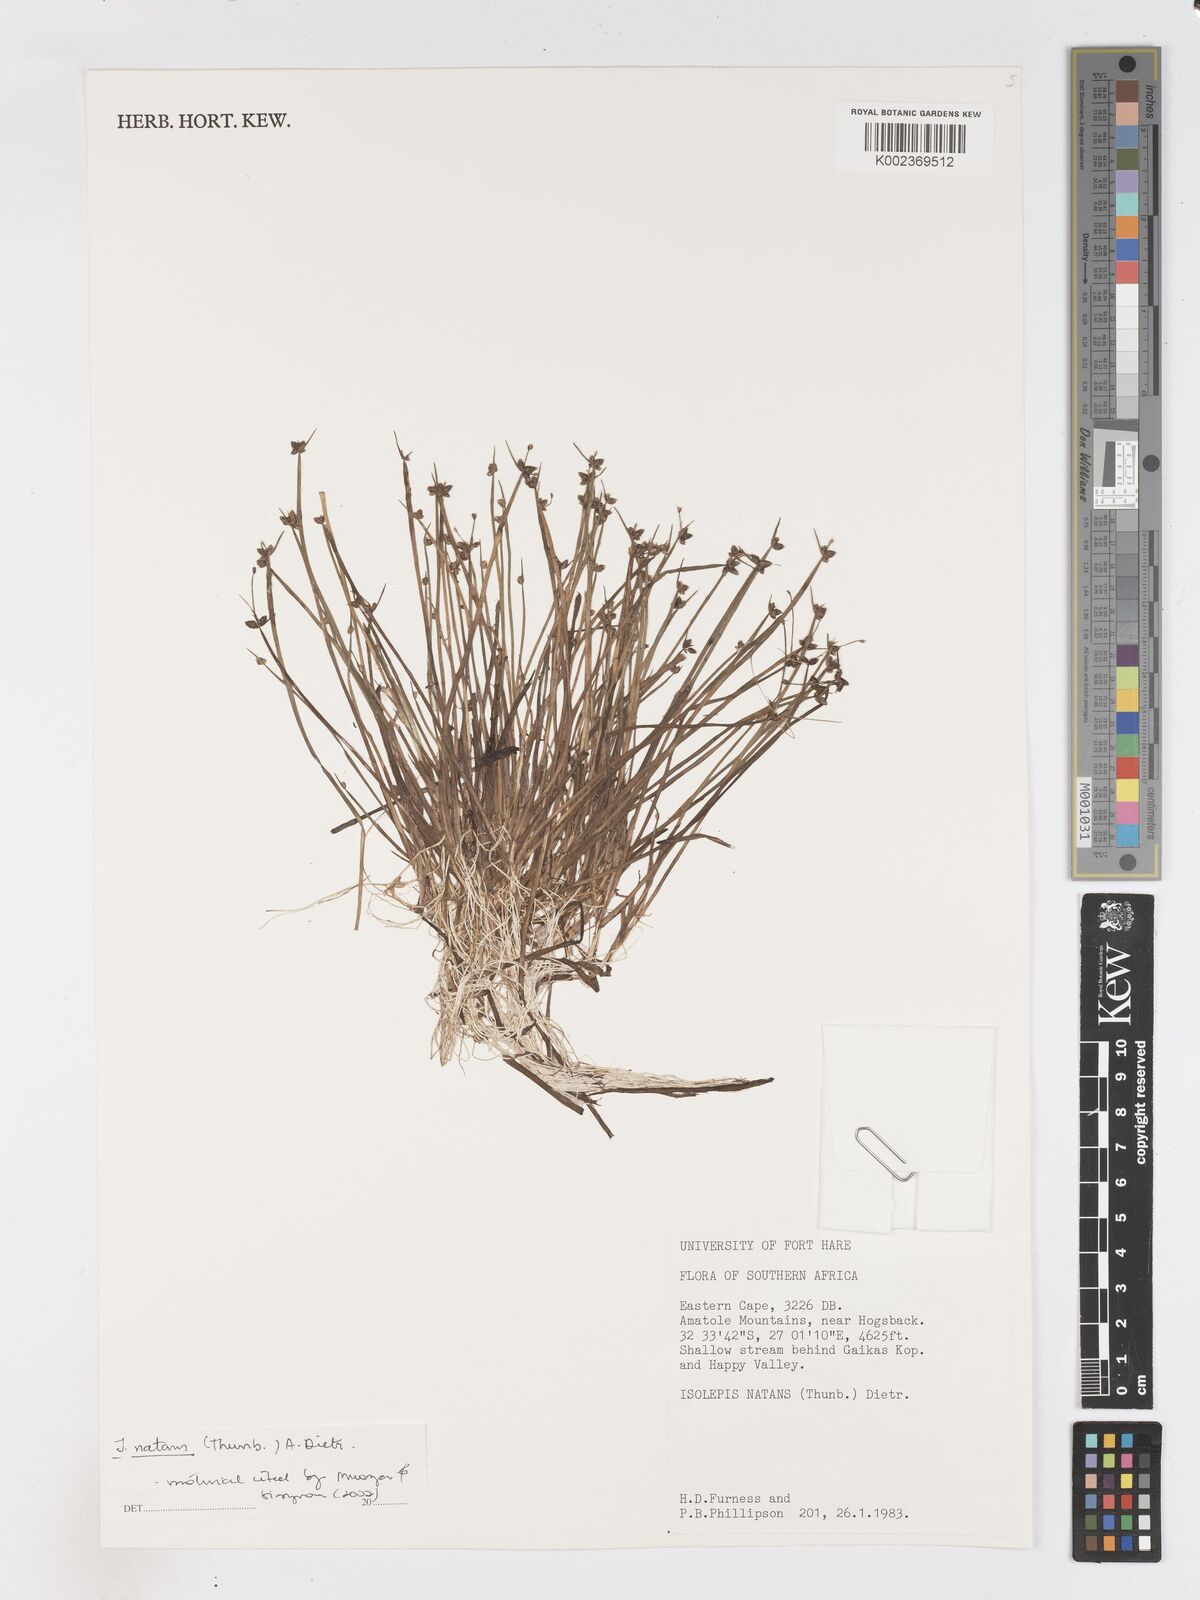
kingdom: Plantae
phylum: Tracheophyta
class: Liliopsida
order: Poales
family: Cyperaceae
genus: Isolepis
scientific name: Isolepis natans
